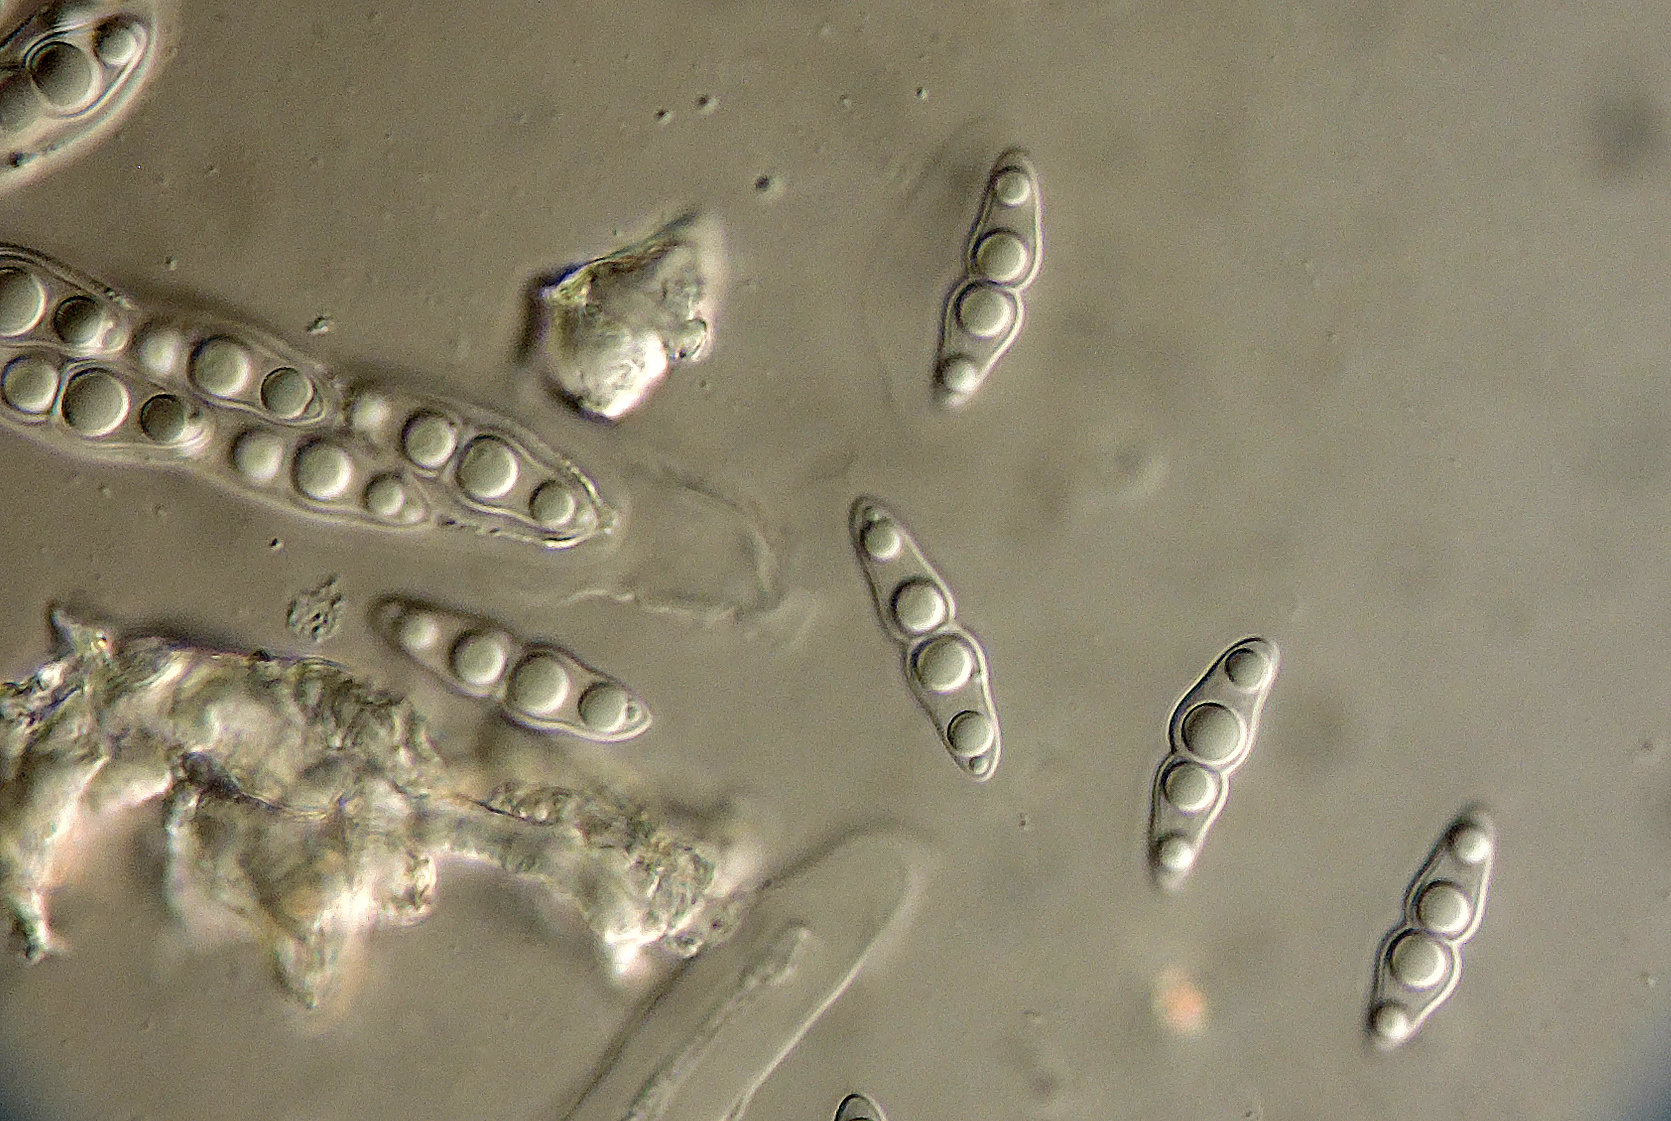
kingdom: Fungi
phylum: Ascomycota
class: Dothideomycetes
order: Pleosporales
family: Leptosphaeriaceae
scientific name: Leptosphaeriaceae
